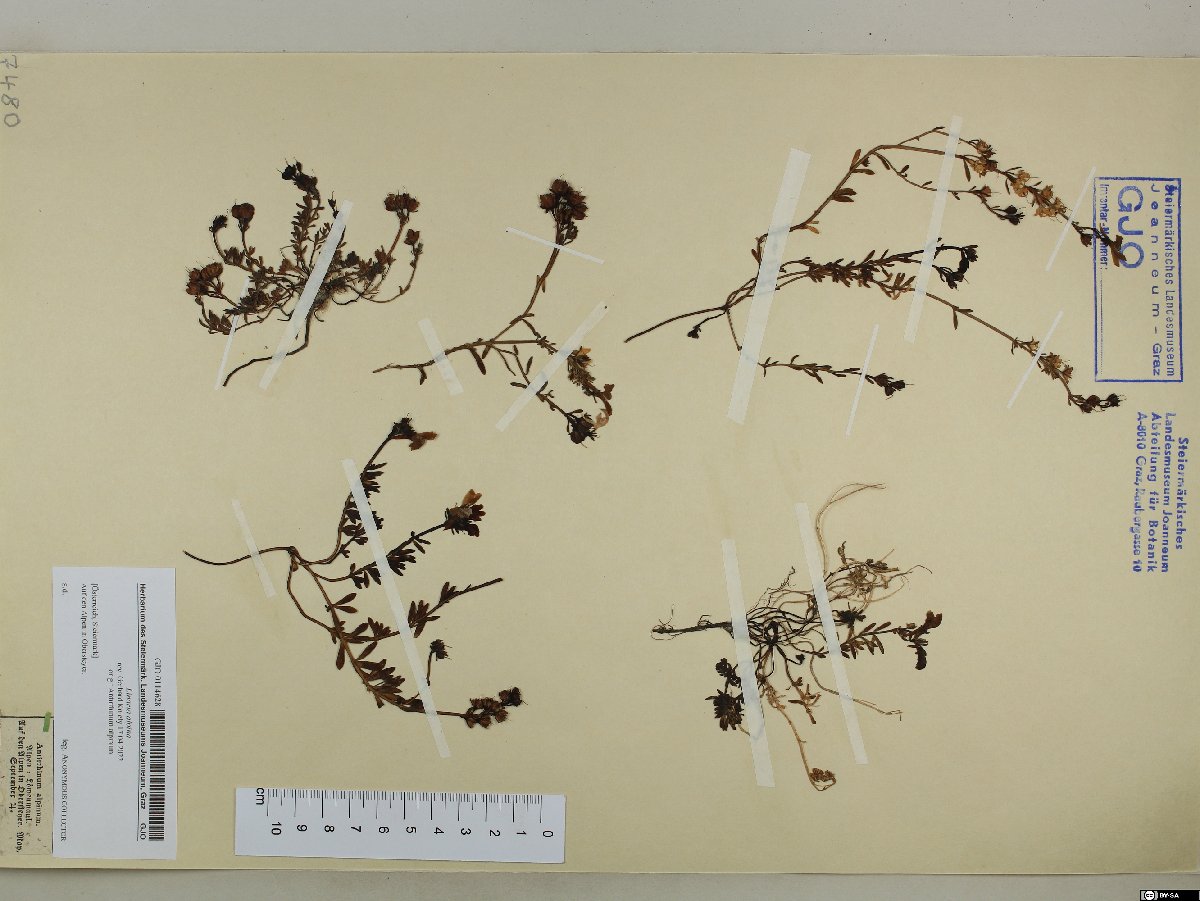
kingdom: Plantae
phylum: Tracheophyta
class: Magnoliopsida
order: Lamiales
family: Plantaginaceae
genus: Linaria
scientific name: Linaria alpina
